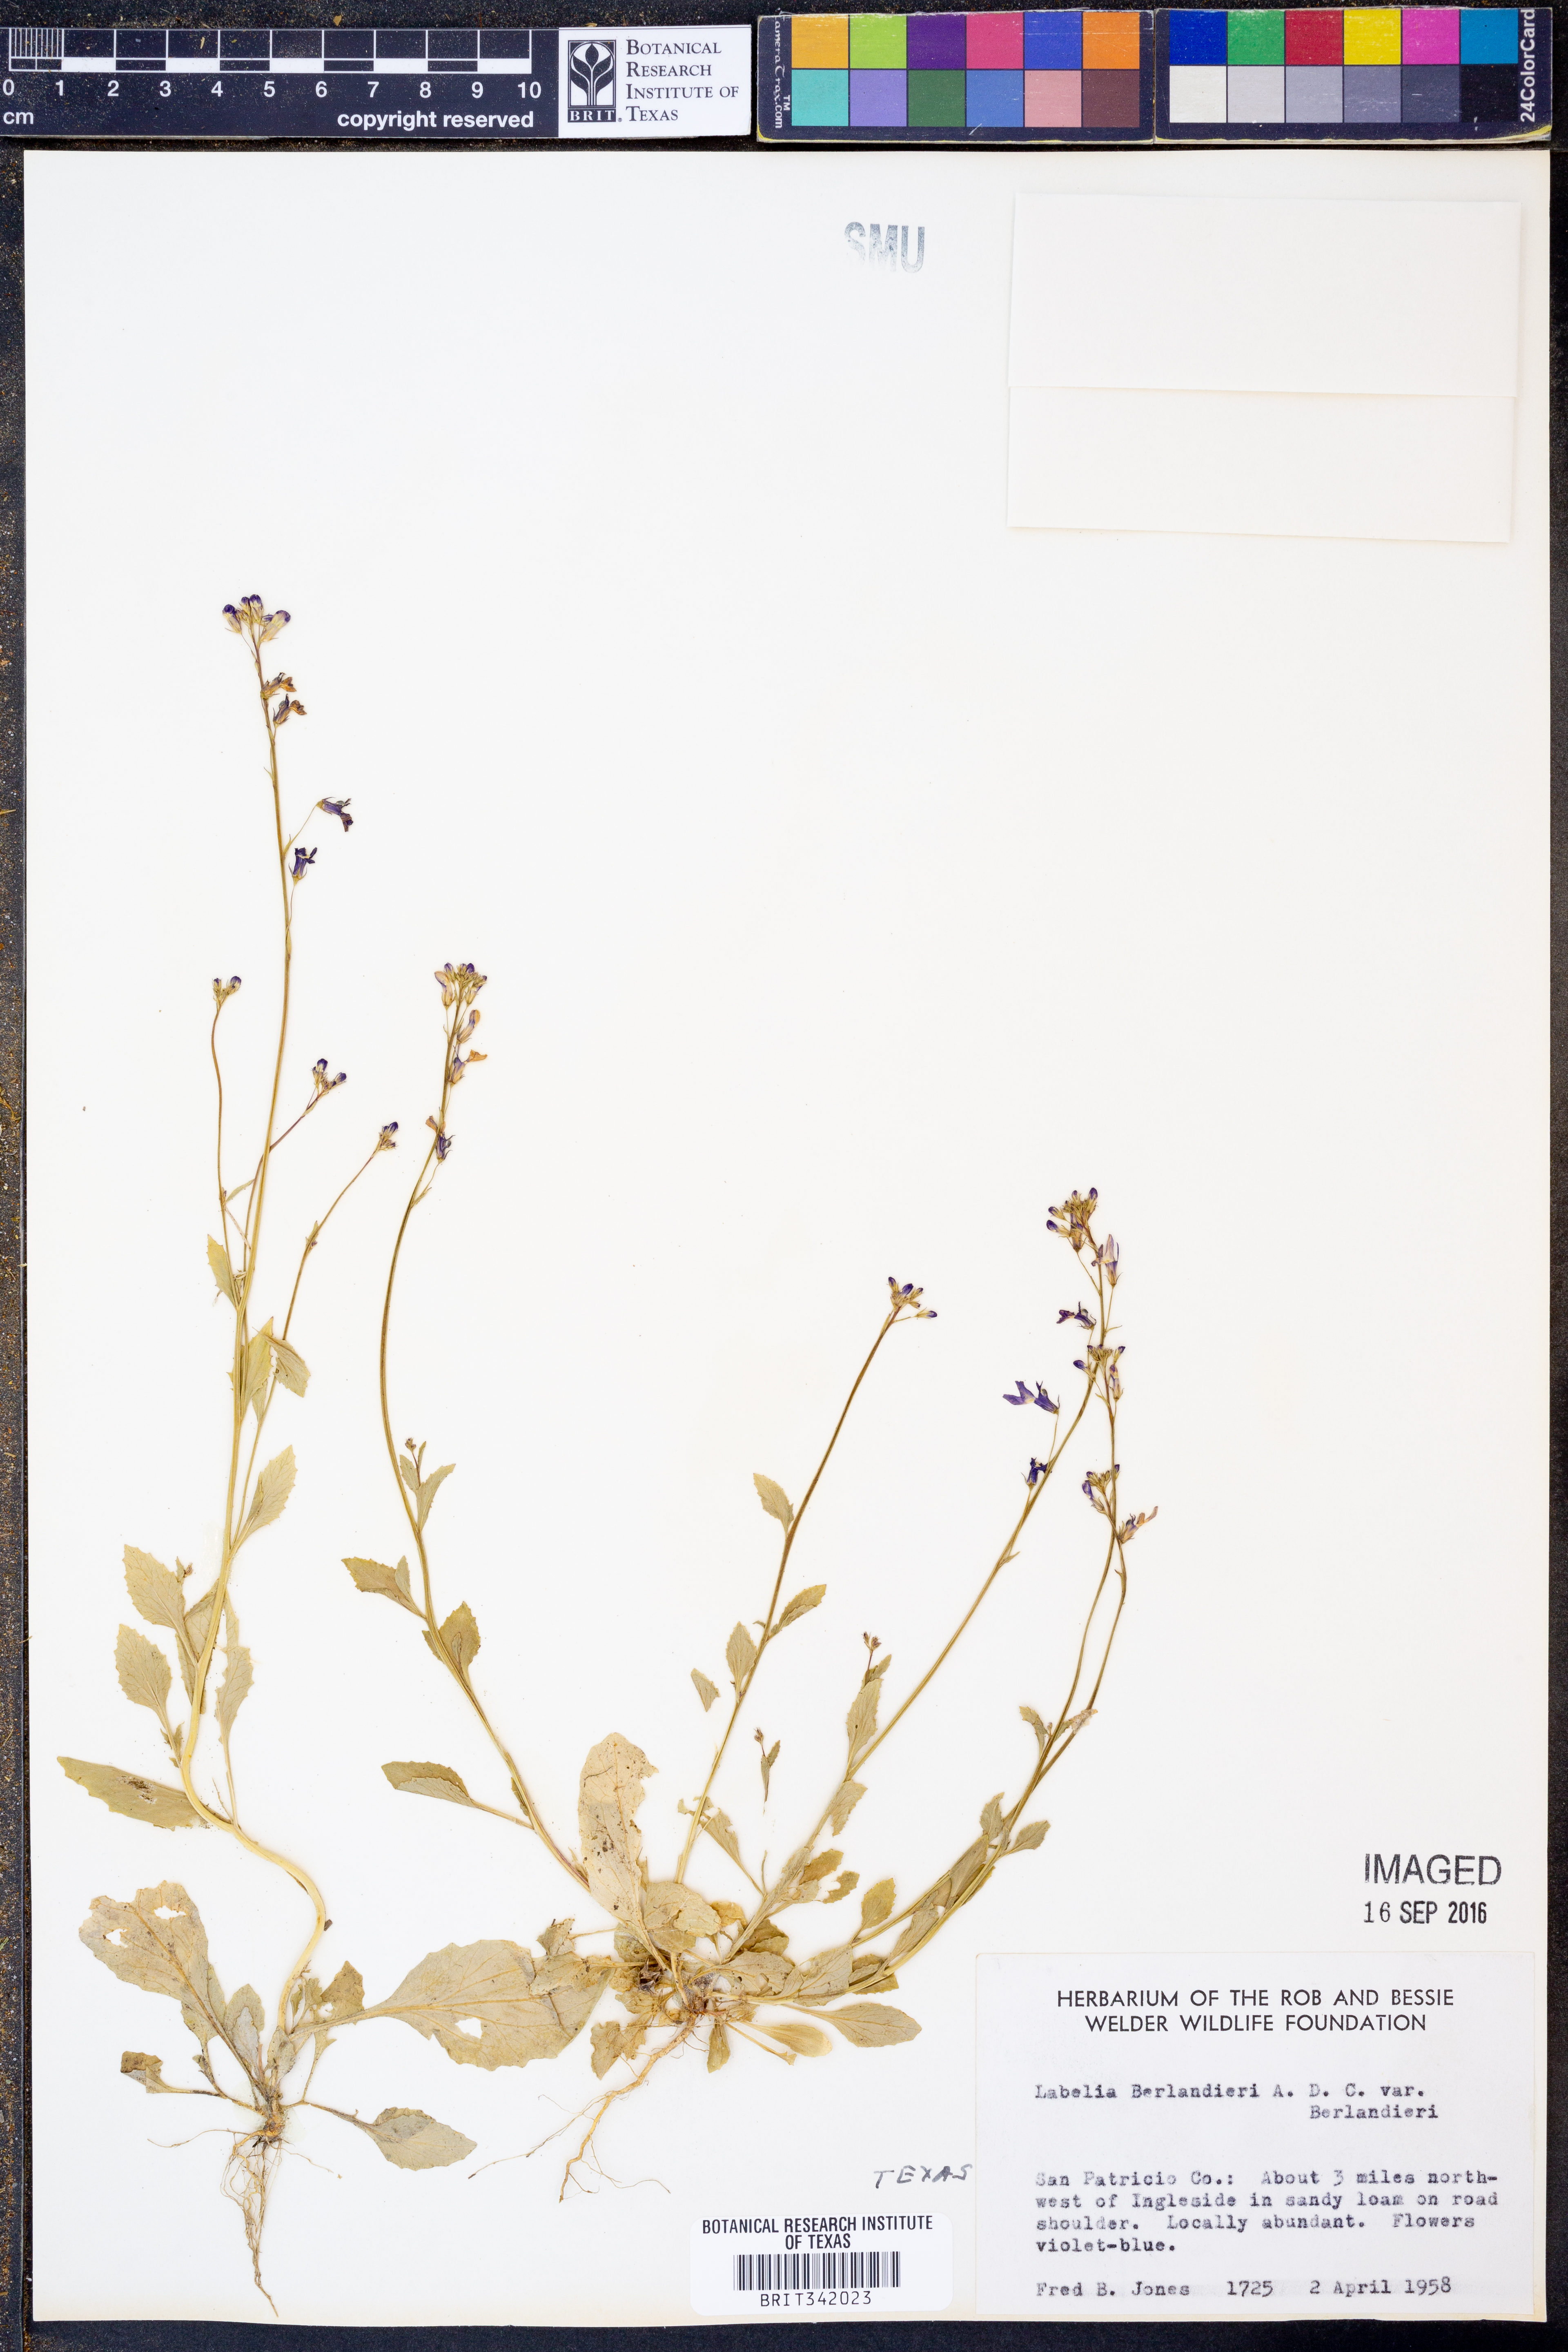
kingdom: Plantae
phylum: Tracheophyta
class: Magnoliopsida
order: Asterales
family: Campanulaceae
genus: Lobelia
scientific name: Lobelia berlandieri
